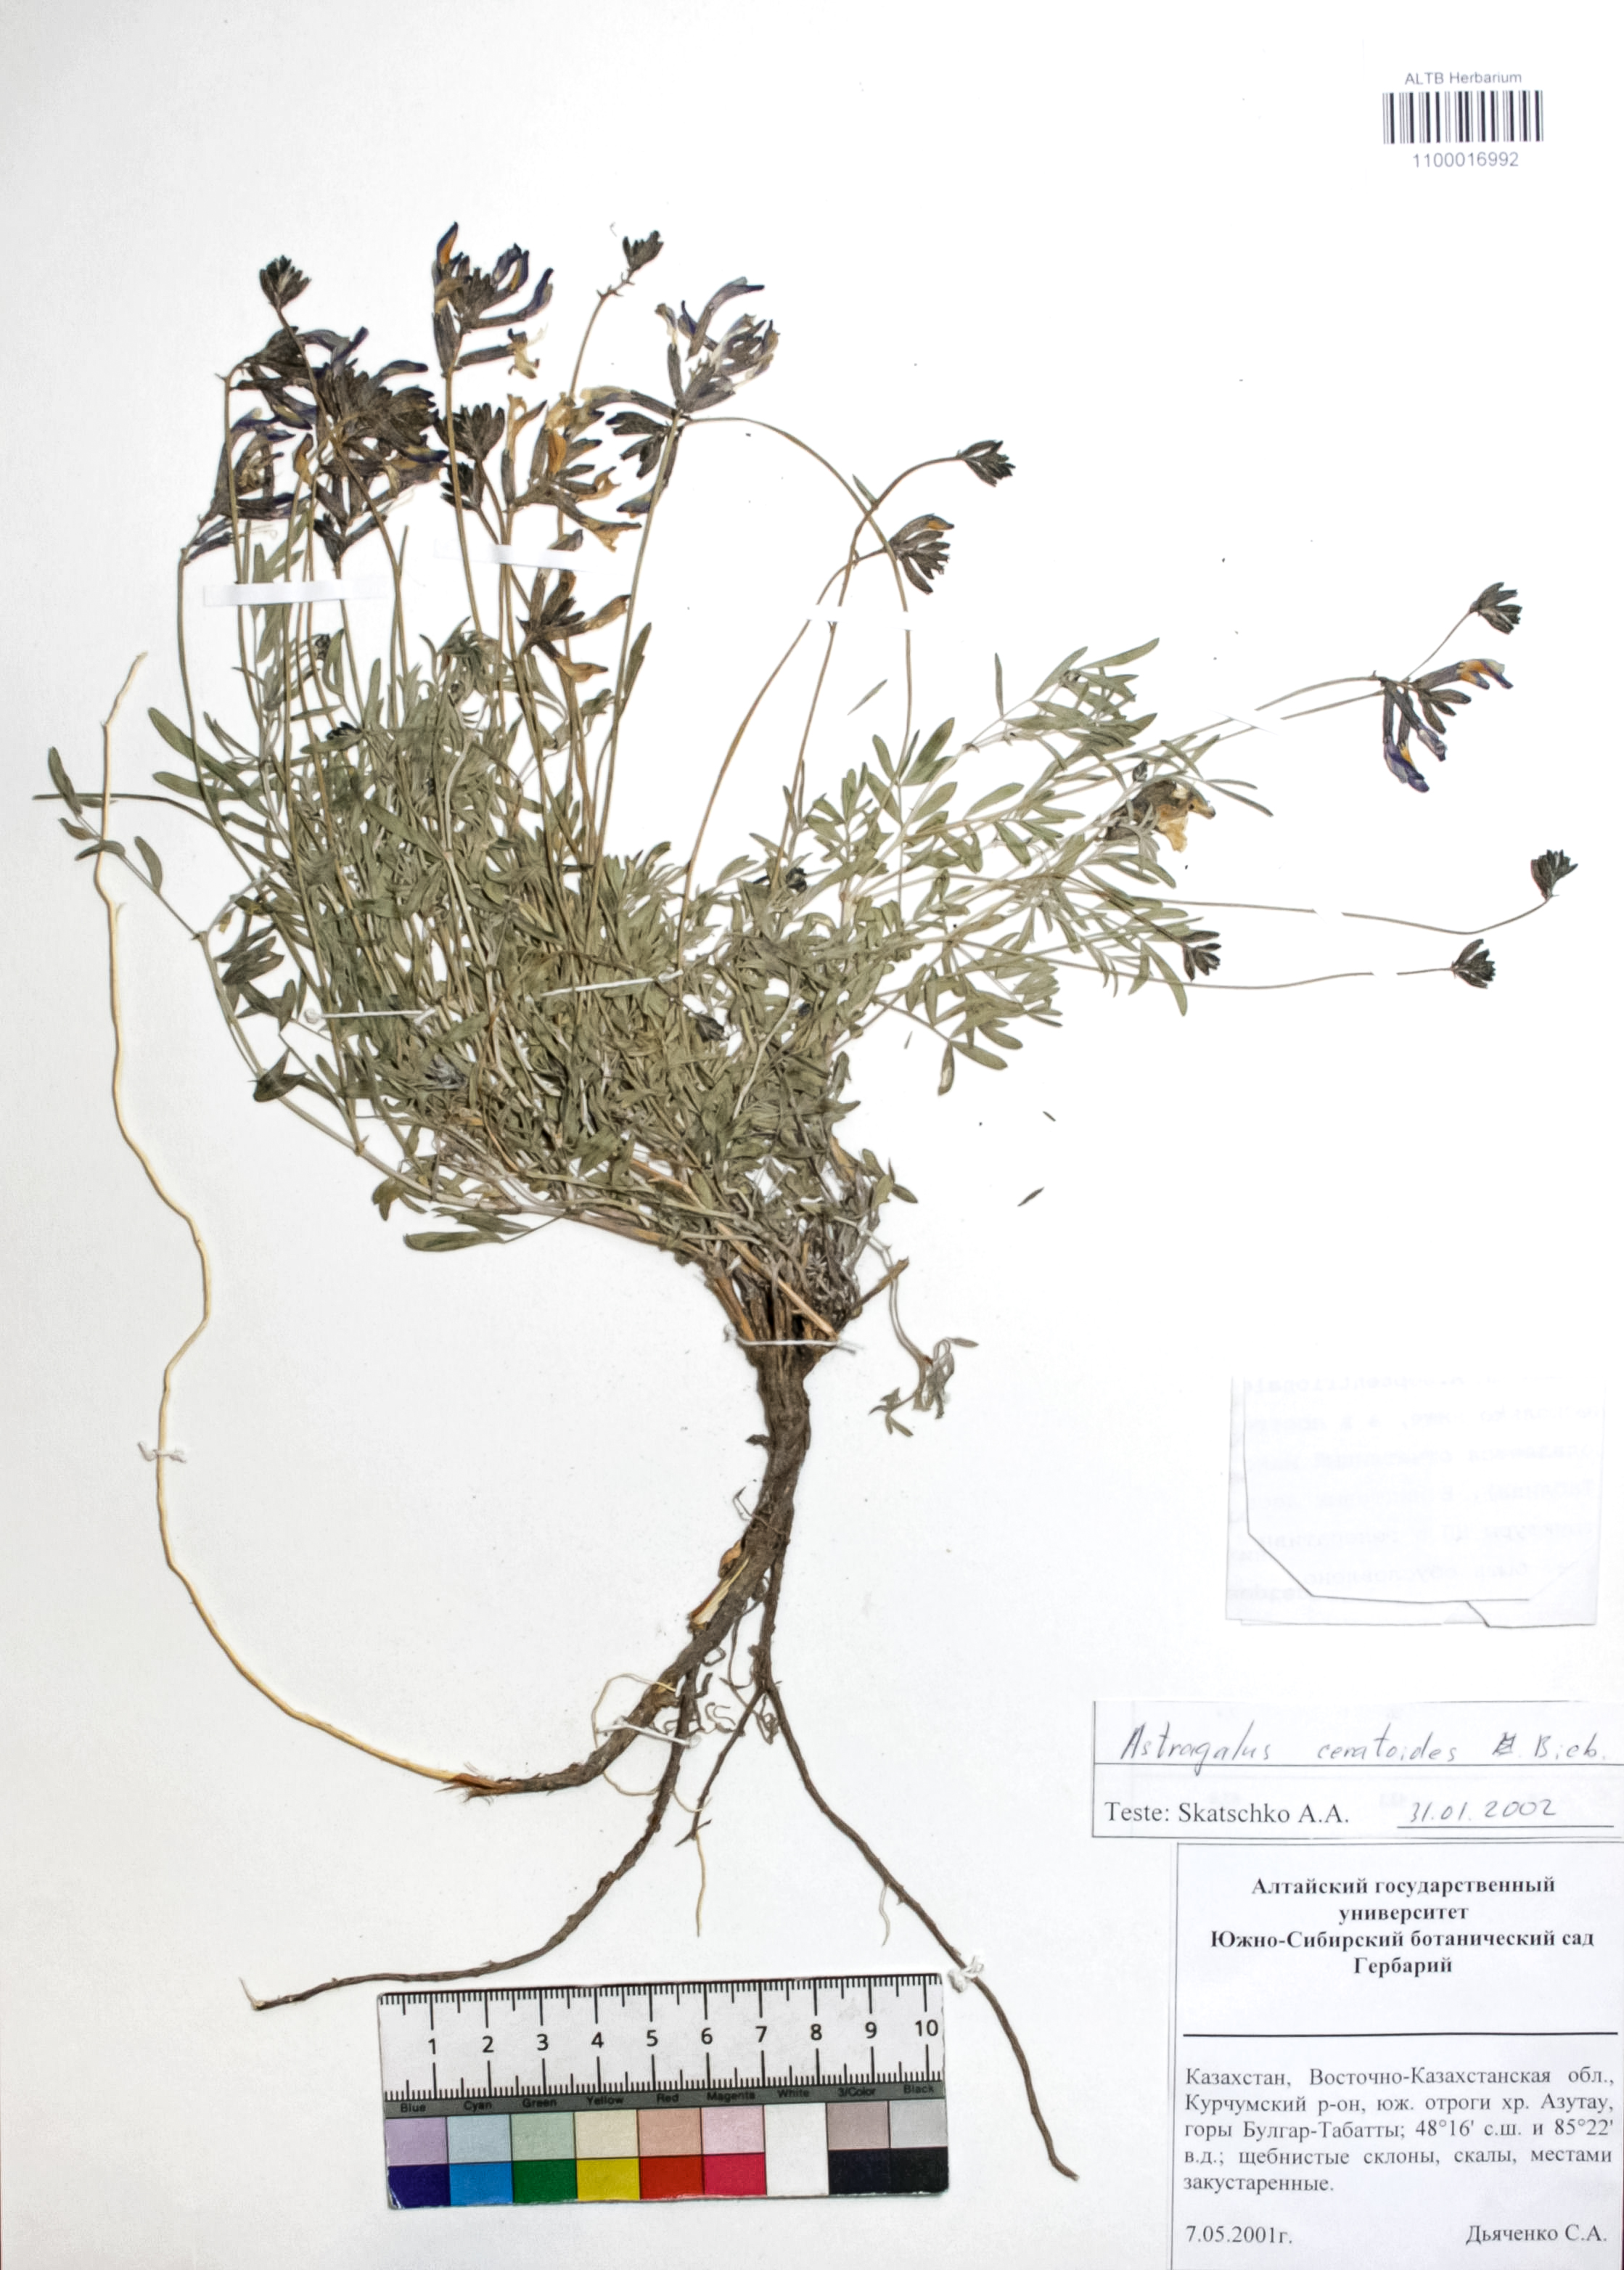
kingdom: Plantae
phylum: Tracheophyta
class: Magnoliopsida
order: Fabales
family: Fabaceae
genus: Astragalus
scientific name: Astragalus ceratoides
